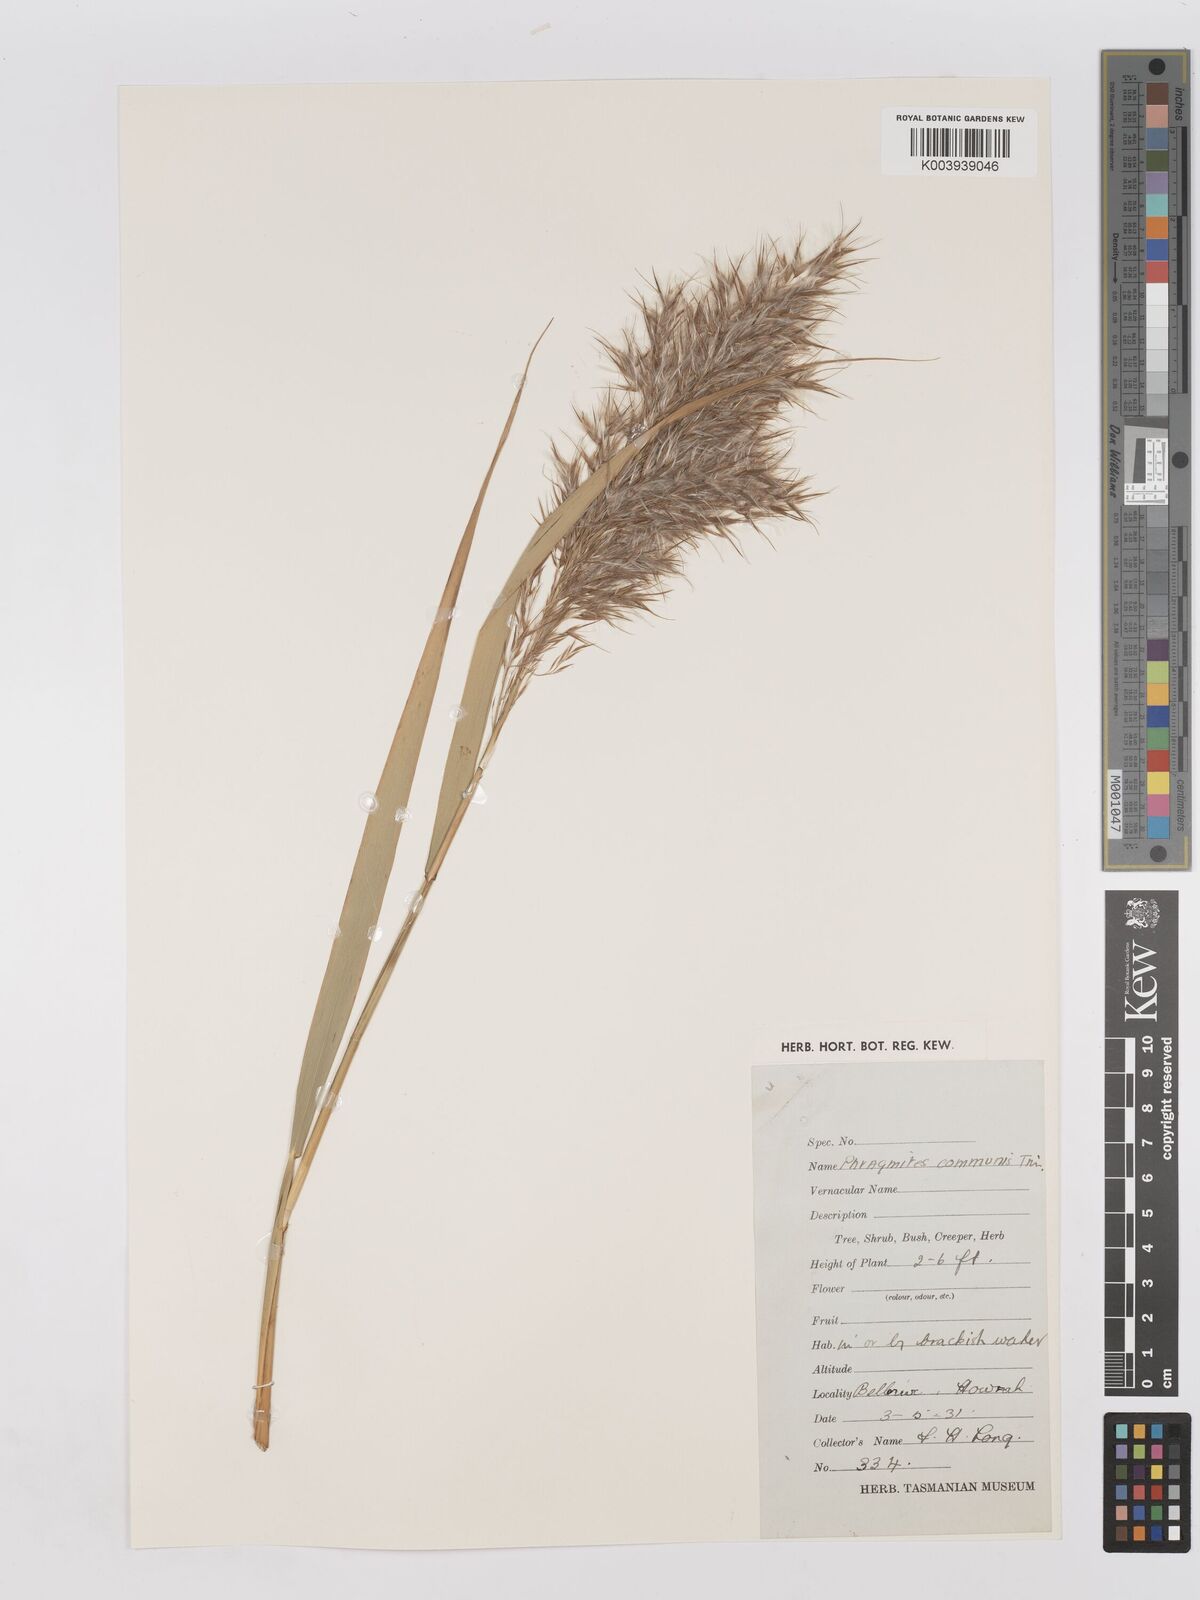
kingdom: Plantae
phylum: Tracheophyta
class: Liliopsida
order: Poales
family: Poaceae
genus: Phragmites
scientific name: Phragmites australis
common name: Common reed
